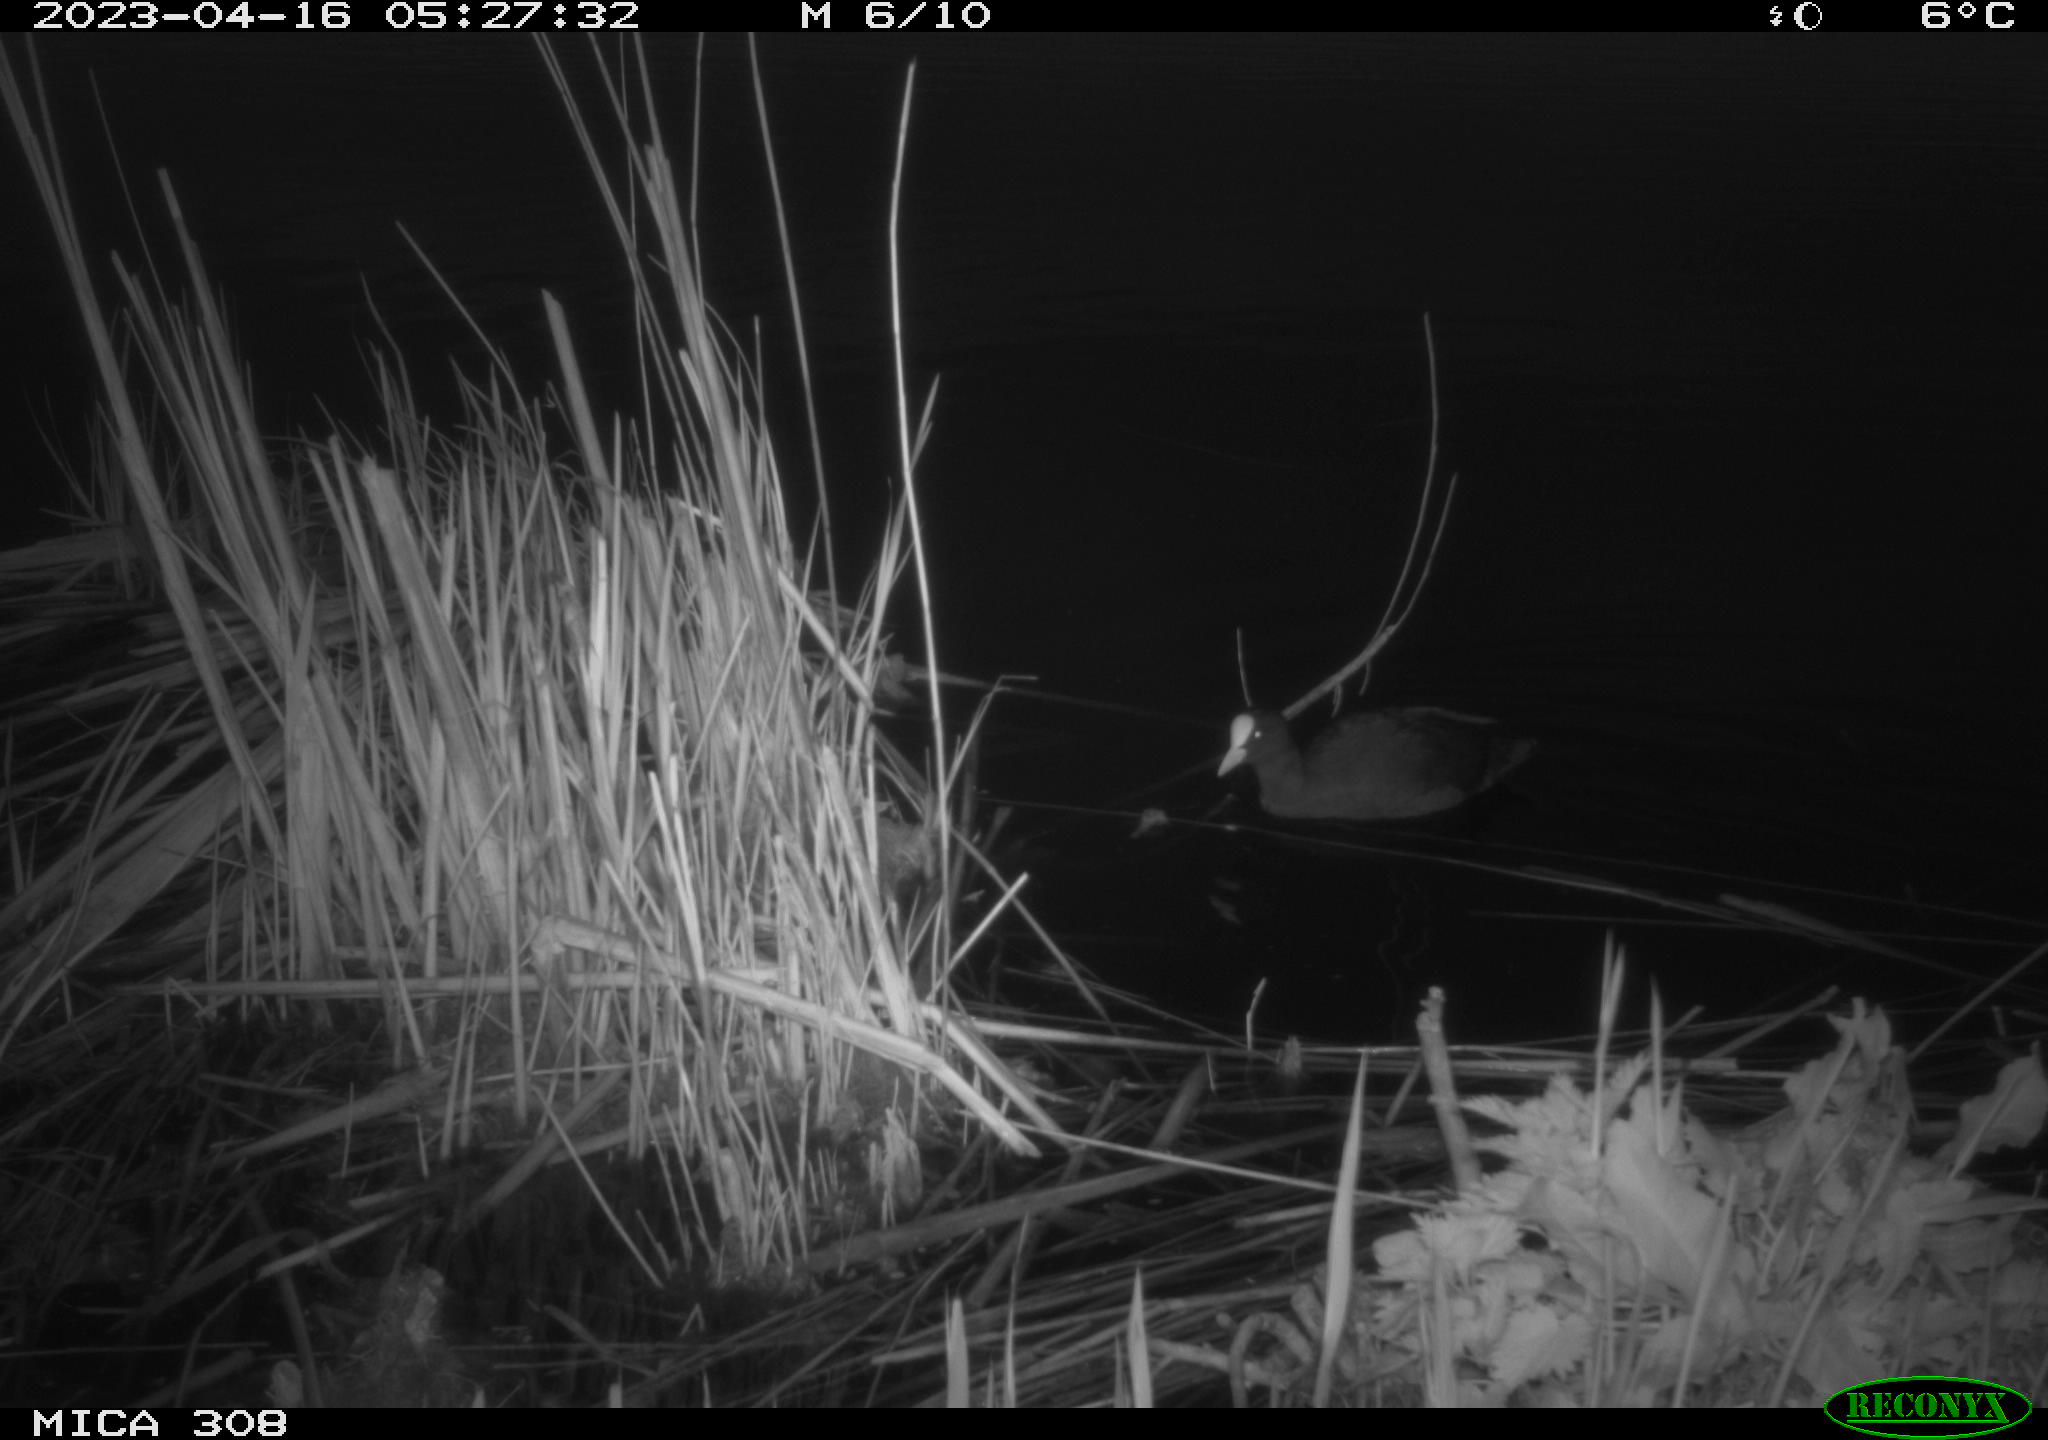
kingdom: Animalia
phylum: Chordata
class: Aves
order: Gruiformes
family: Rallidae
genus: Fulica
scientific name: Fulica atra
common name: Eurasian coot
